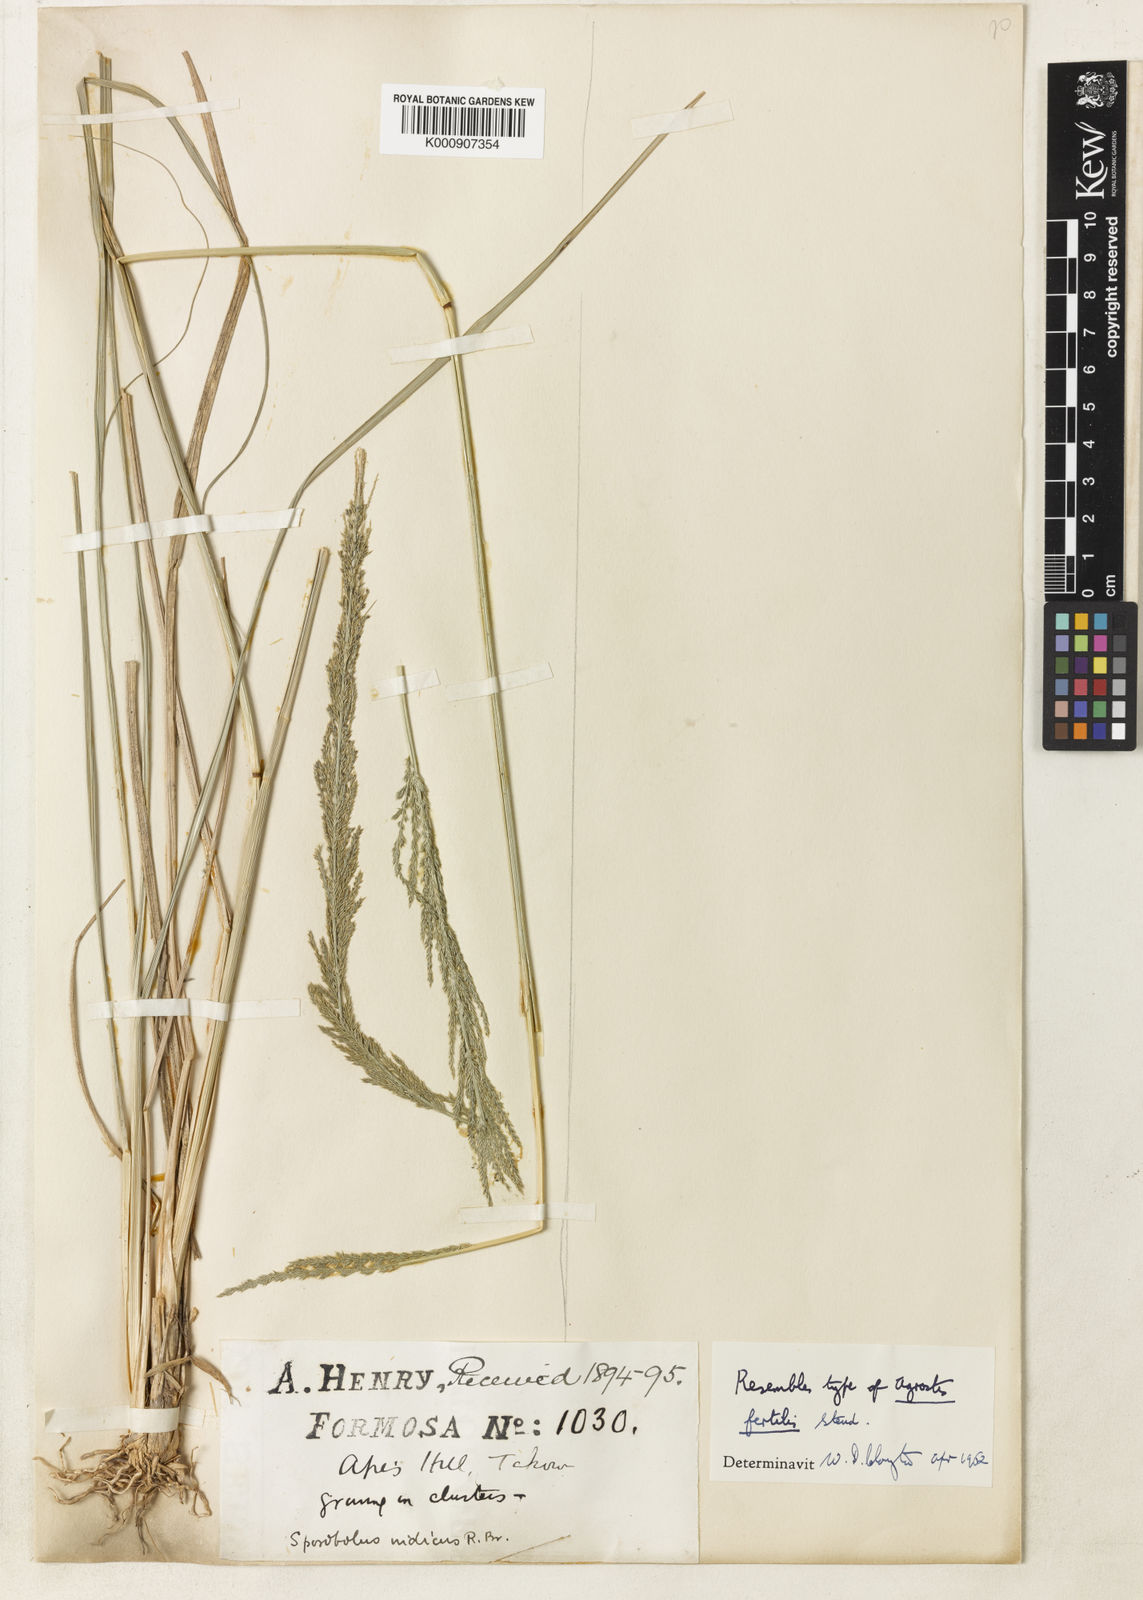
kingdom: Plantae
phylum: Tracheophyta
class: Liliopsida
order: Poales
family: Poaceae
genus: Sporobolus
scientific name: Sporobolus fertilis
